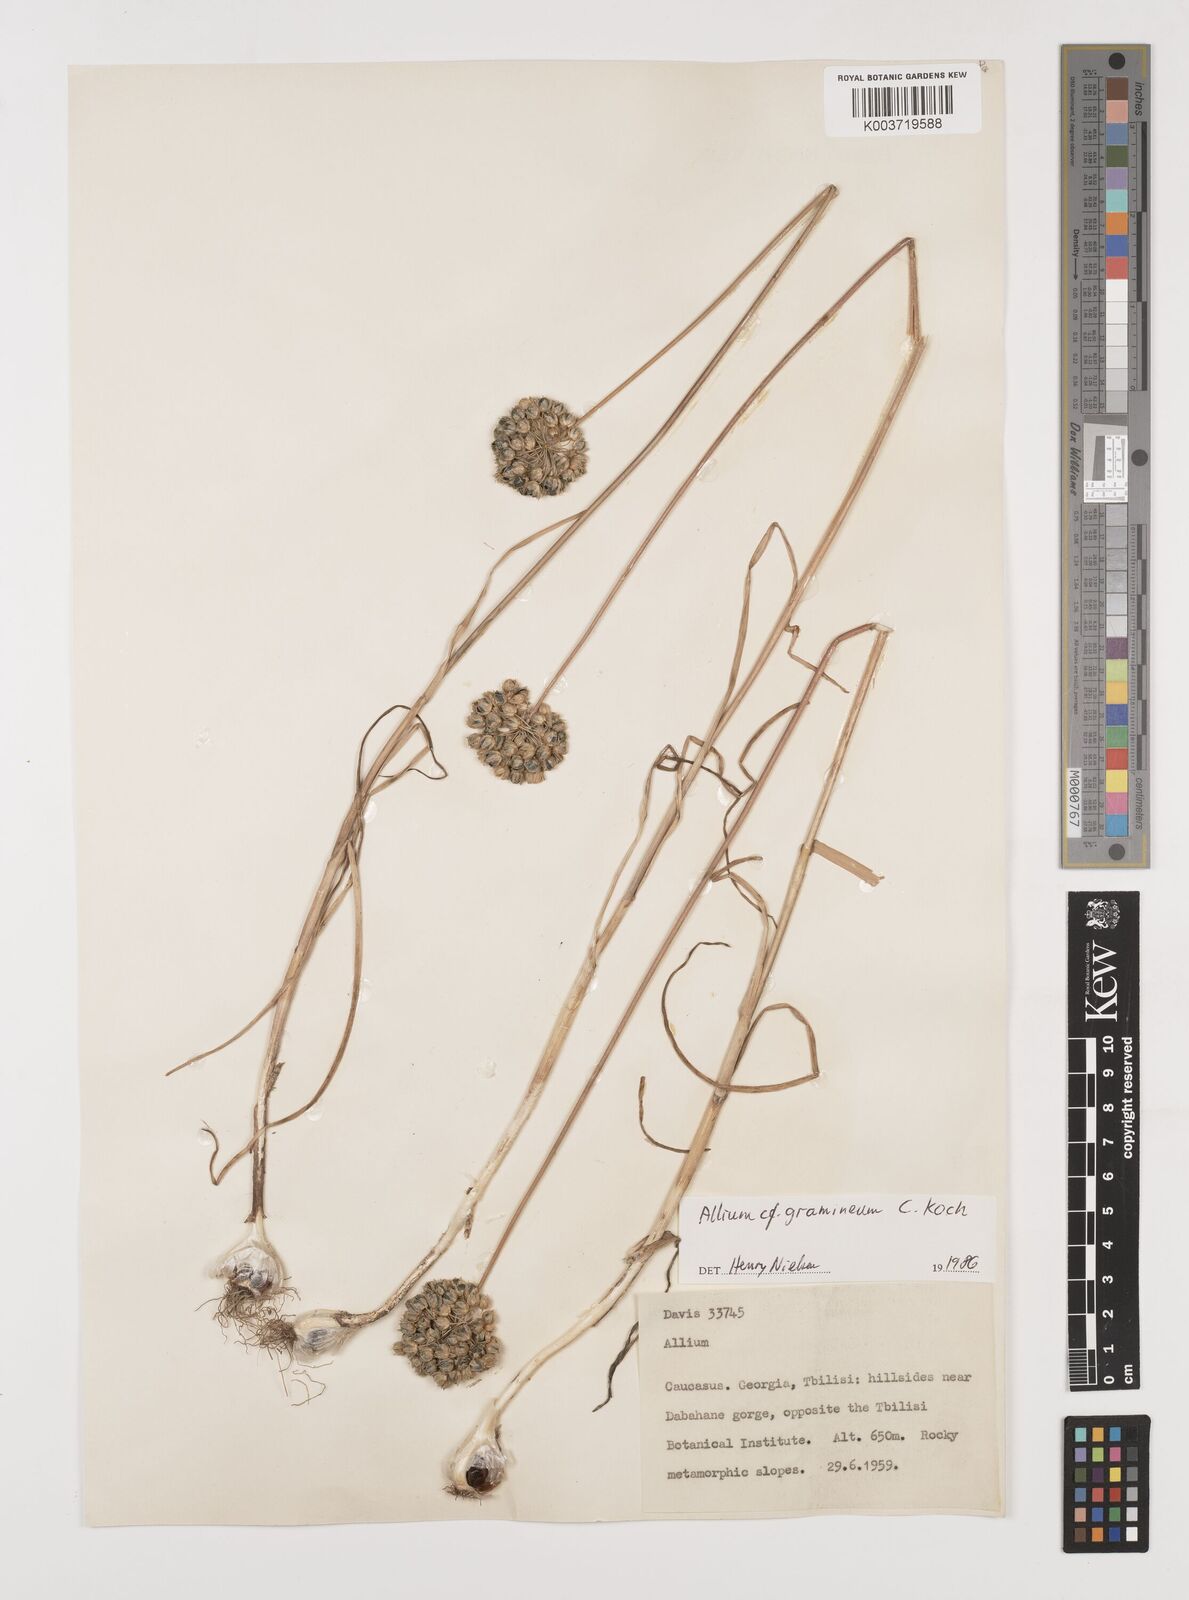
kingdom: Plantae
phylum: Tracheophyta
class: Liliopsida
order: Asparagales
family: Amaryllidaceae
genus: Allium
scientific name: Allium gramineum
